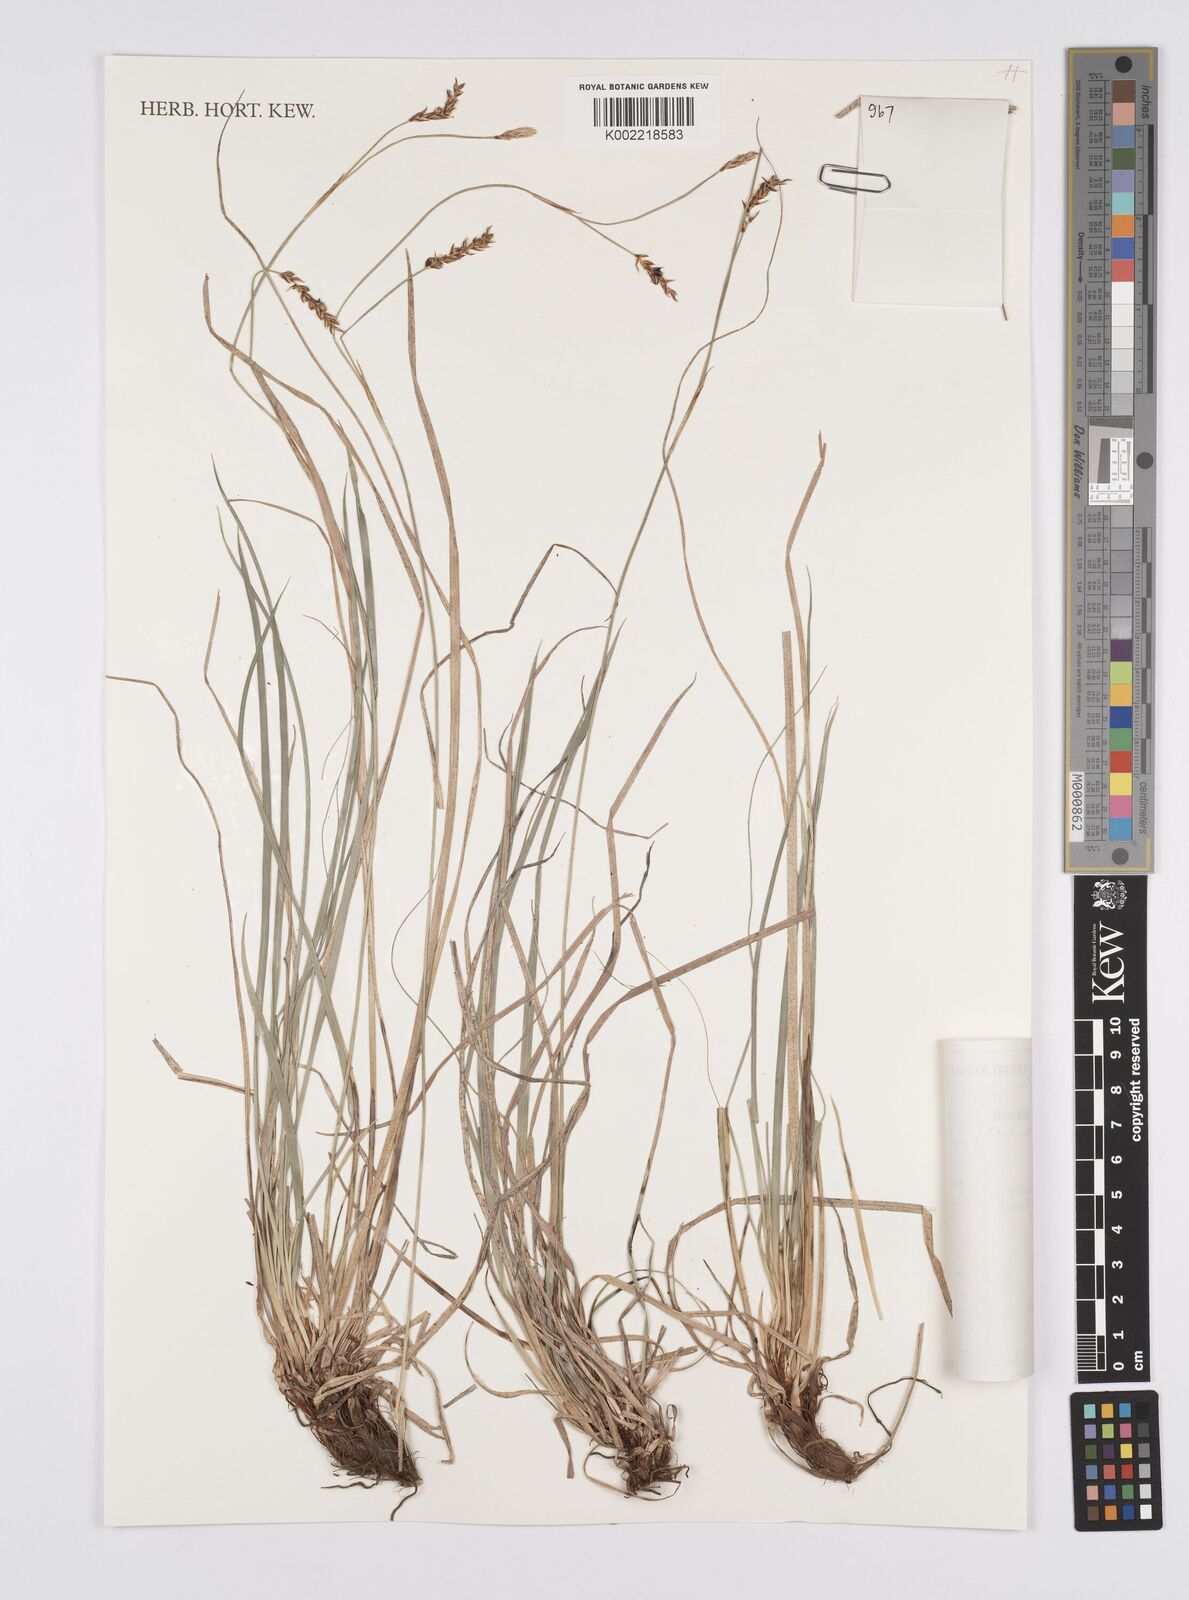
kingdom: Plantae
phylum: Tracheophyta
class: Liliopsida
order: Poales
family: Cyperaceae
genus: Carex
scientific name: Carex pediformis
